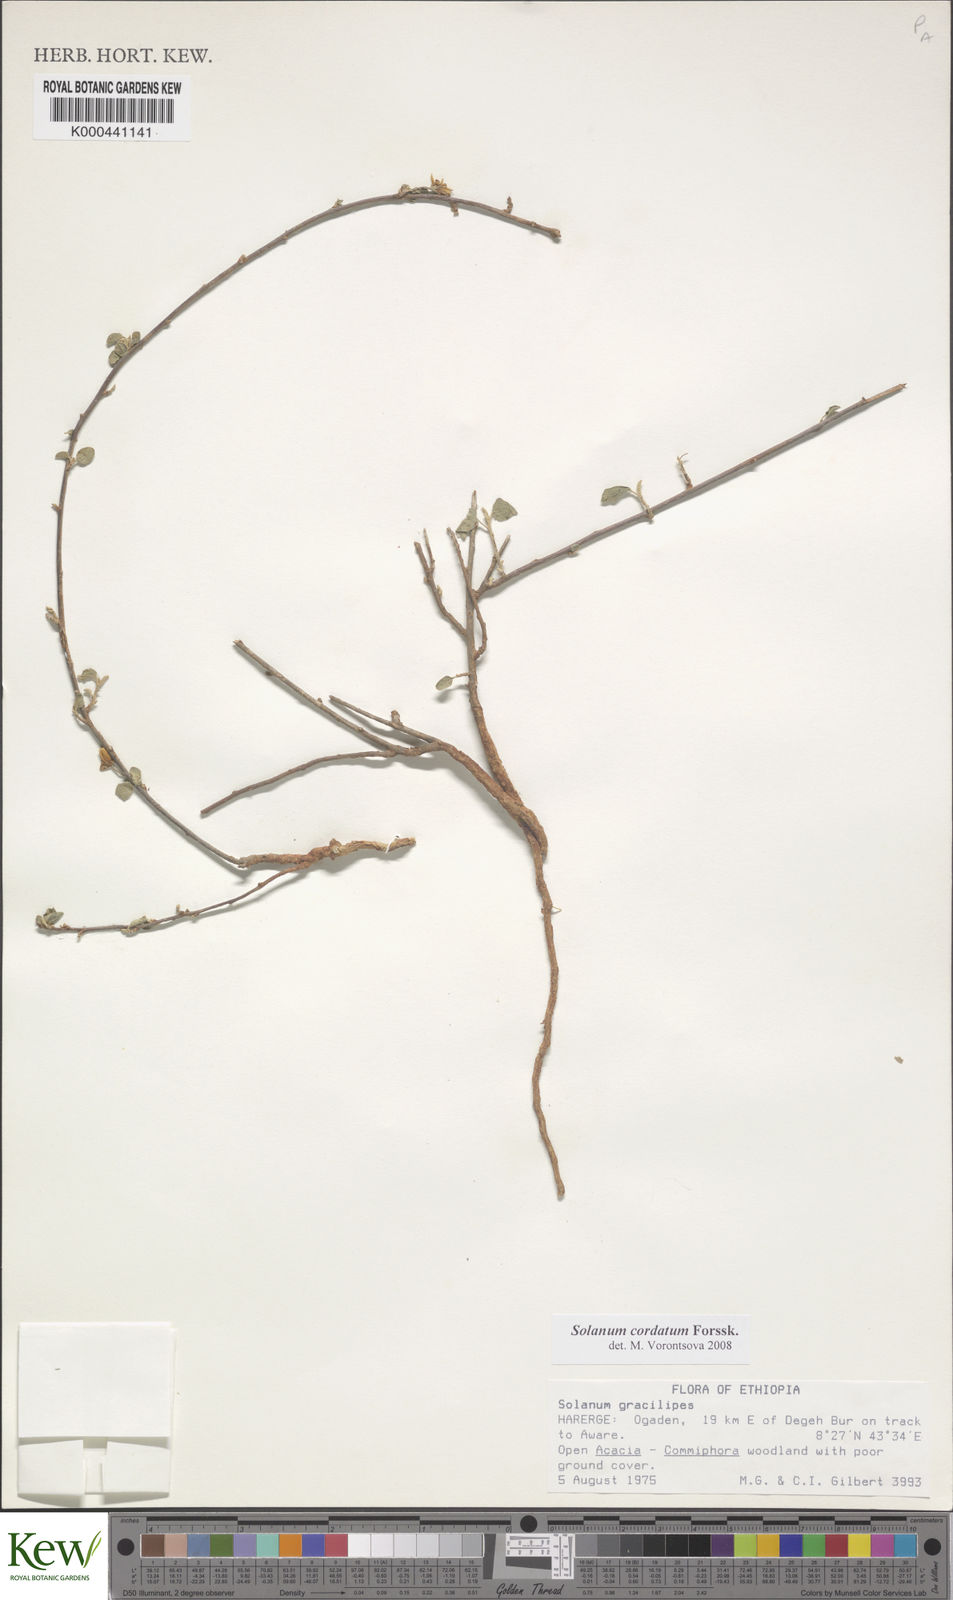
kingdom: Plantae
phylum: Tracheophyta
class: Magnoliopsida
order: Solanales
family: Solanaceae
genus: Solanum
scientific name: Solanum cordatum
